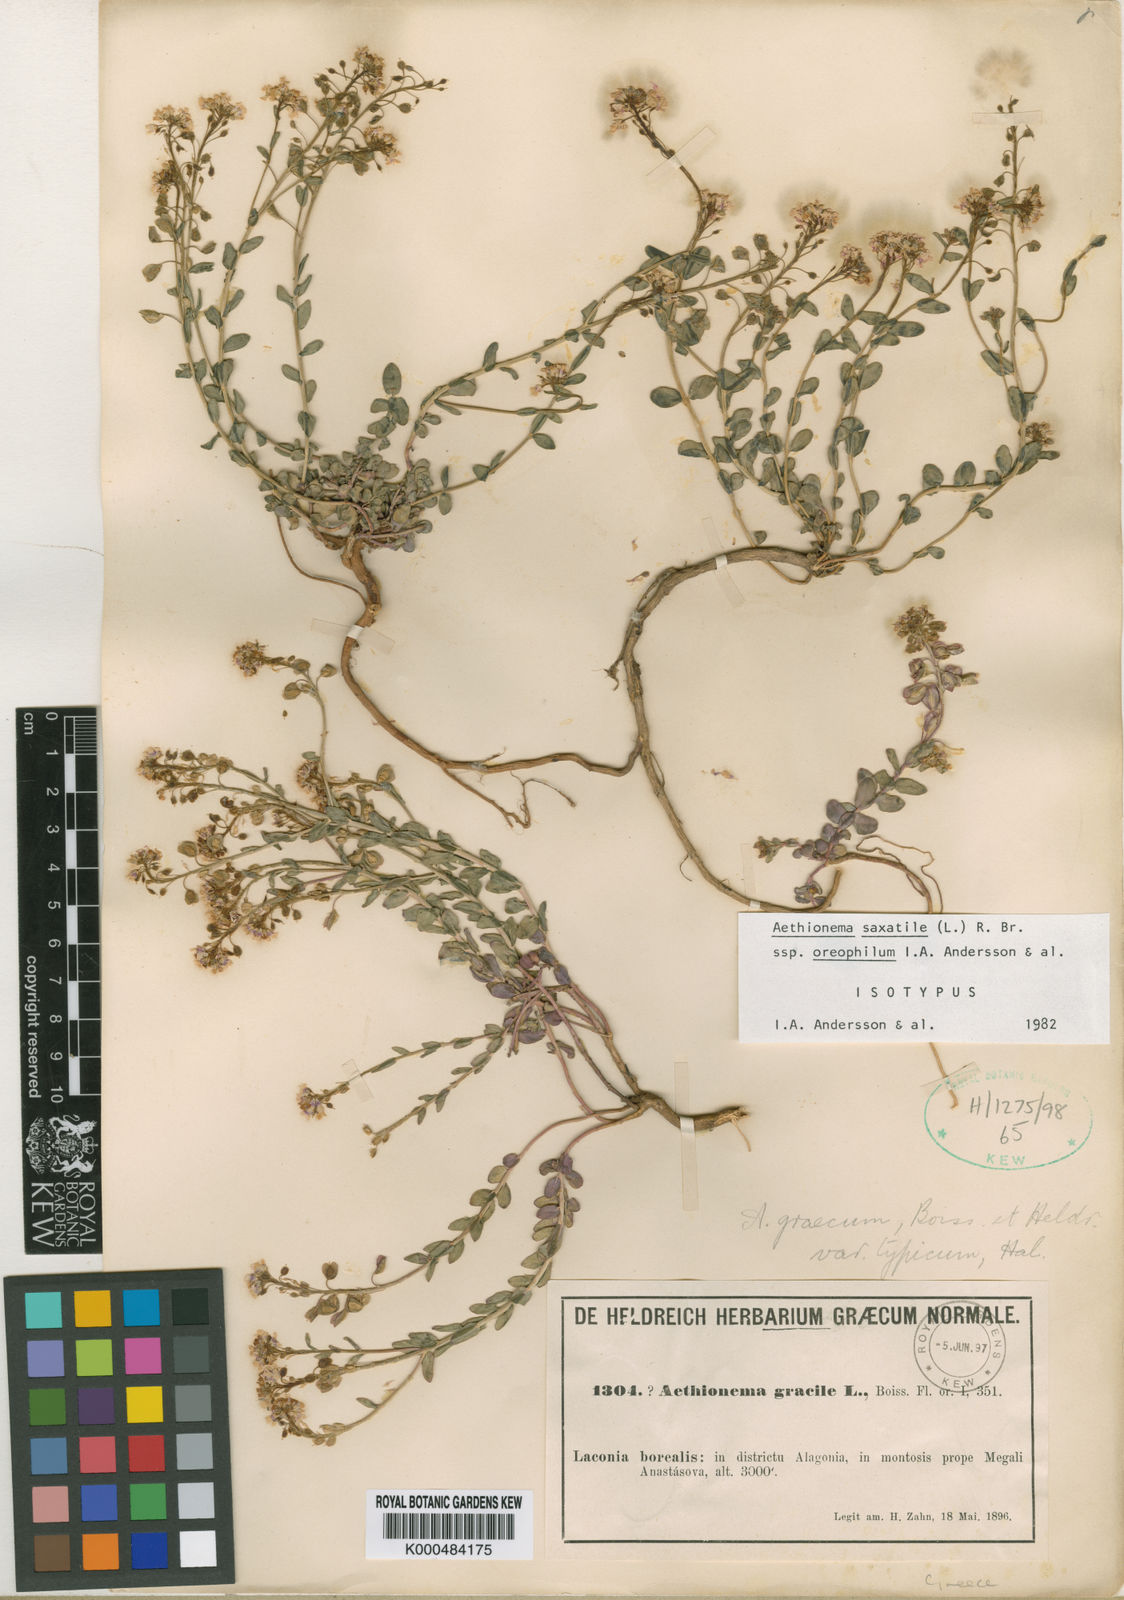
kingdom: Plantae
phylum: Tracheophyta
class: Magnoliopsida
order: Brassicales
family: Brassicaceae
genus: Aethionema
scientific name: Aethionema
